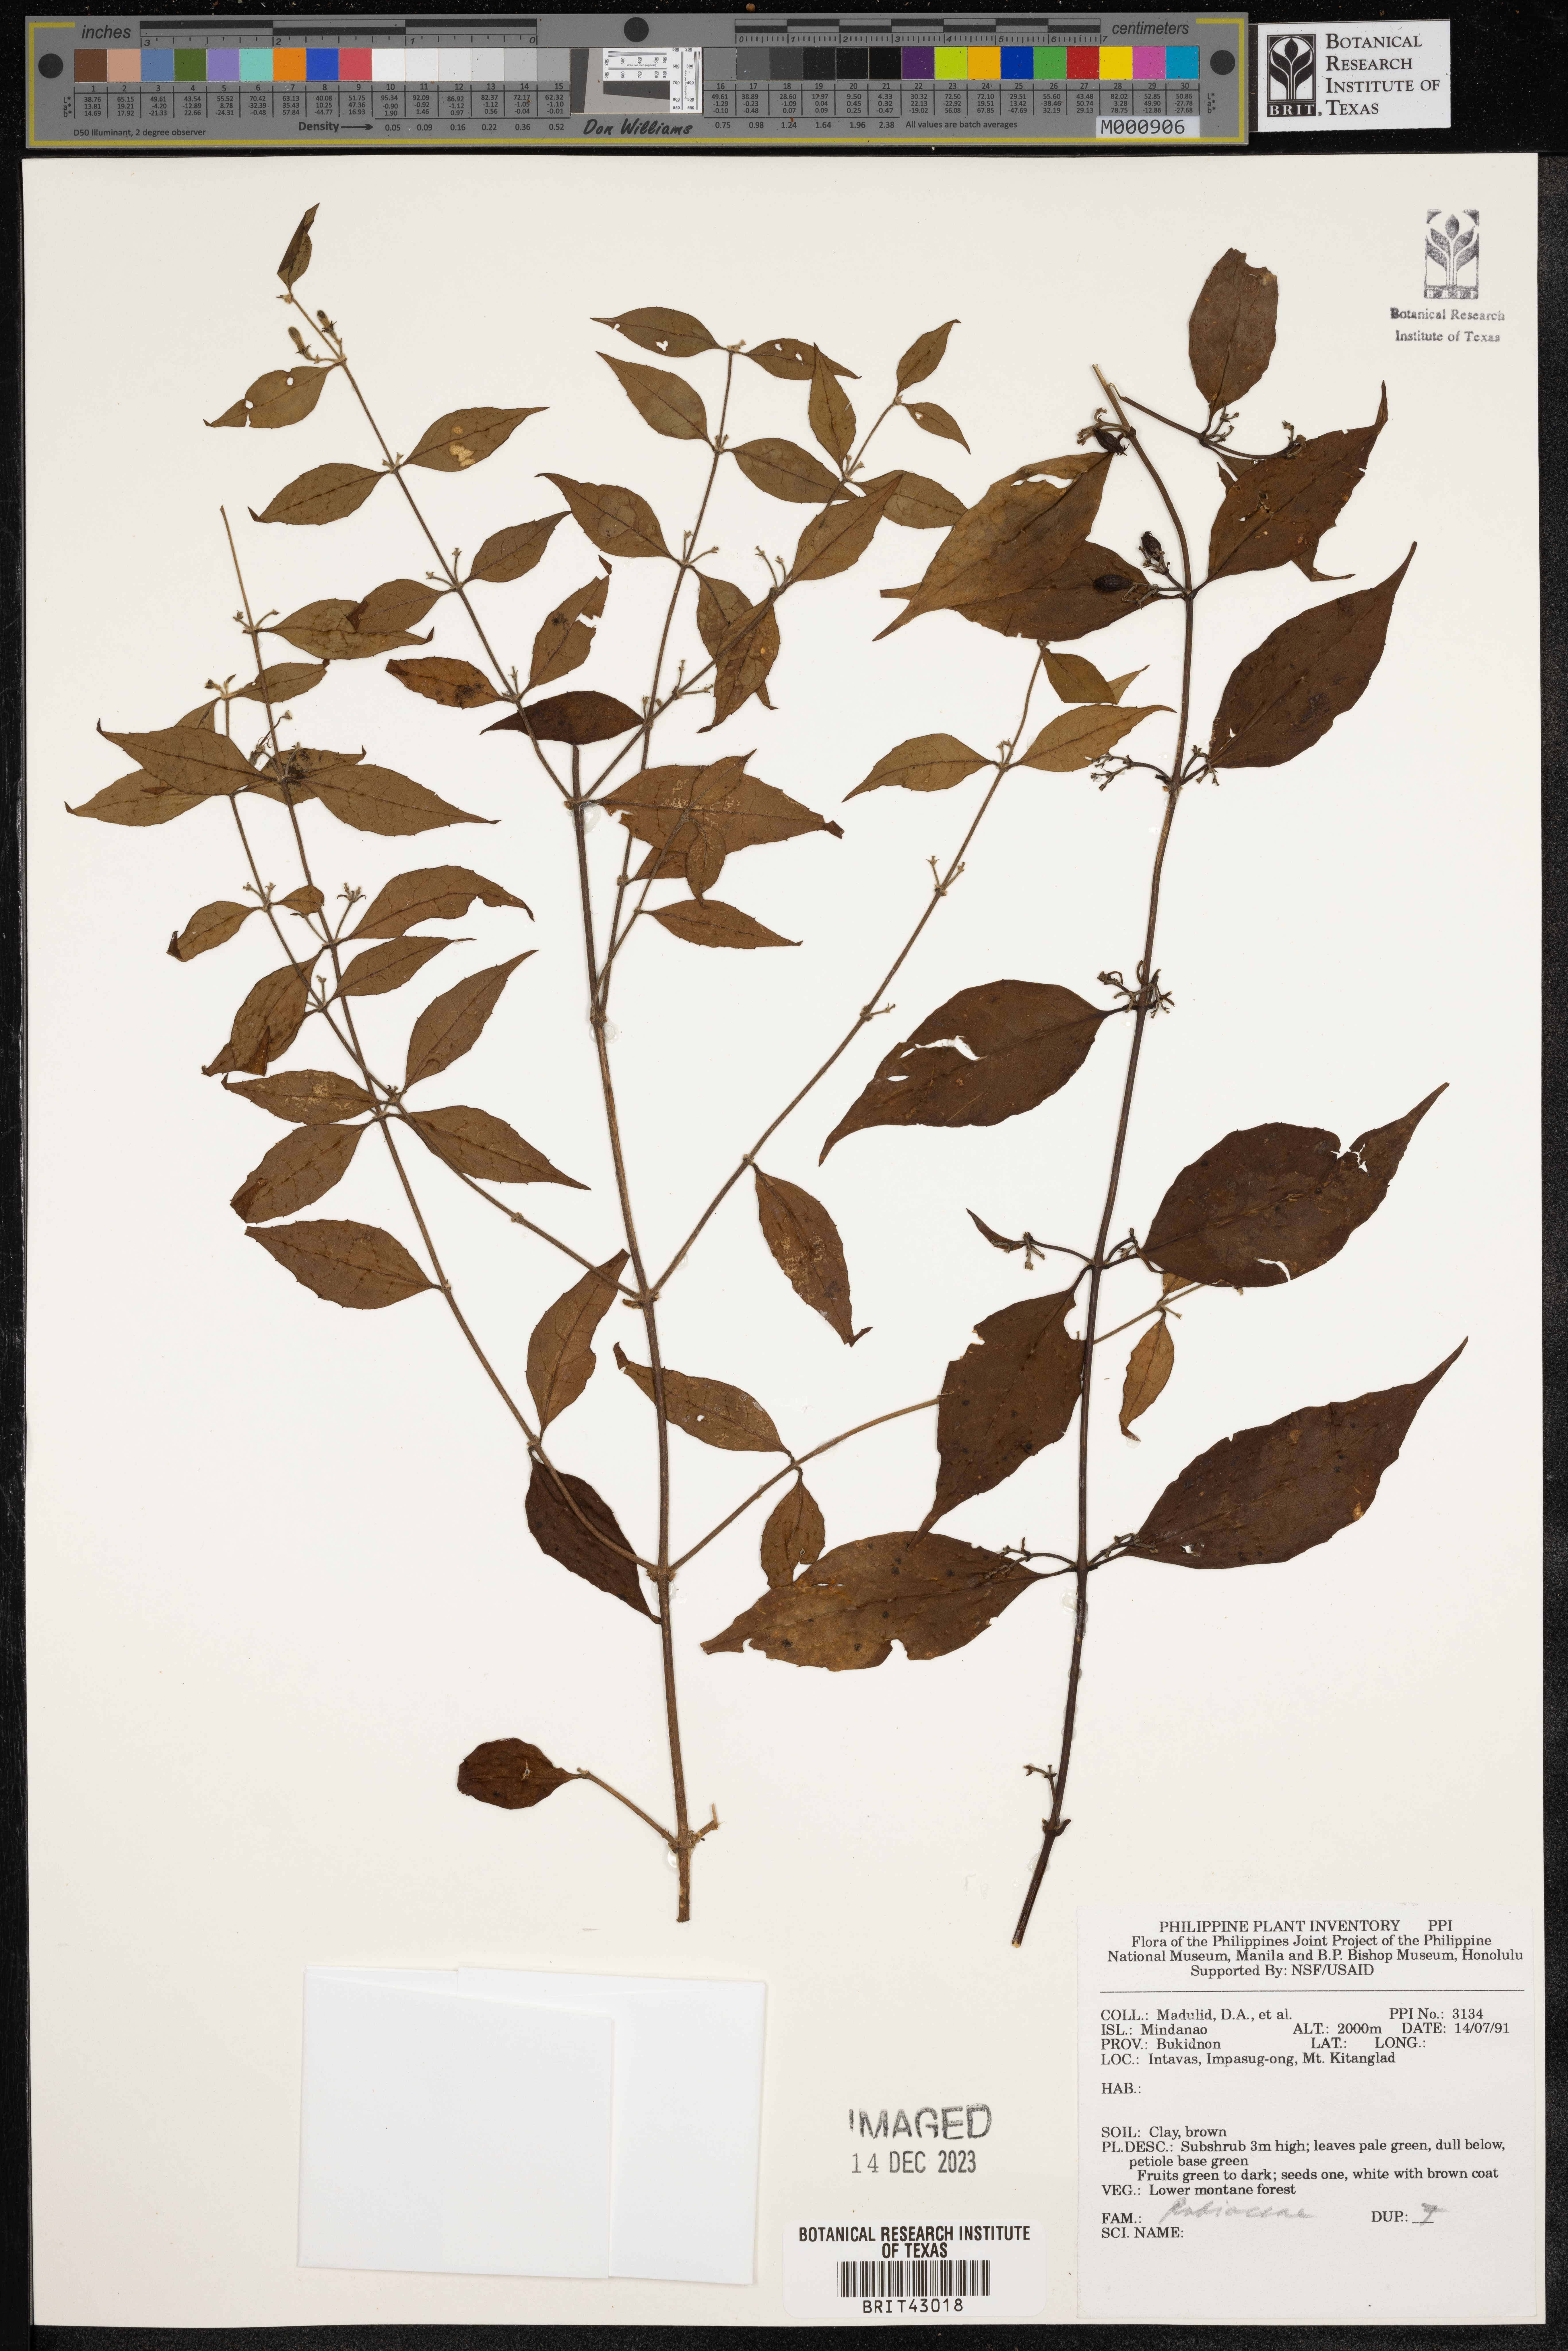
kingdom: Plantae
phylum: Tracheophyta
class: Magnoliopsida
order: Gentianales
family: Rubiaceae
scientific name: Rubiaceae
